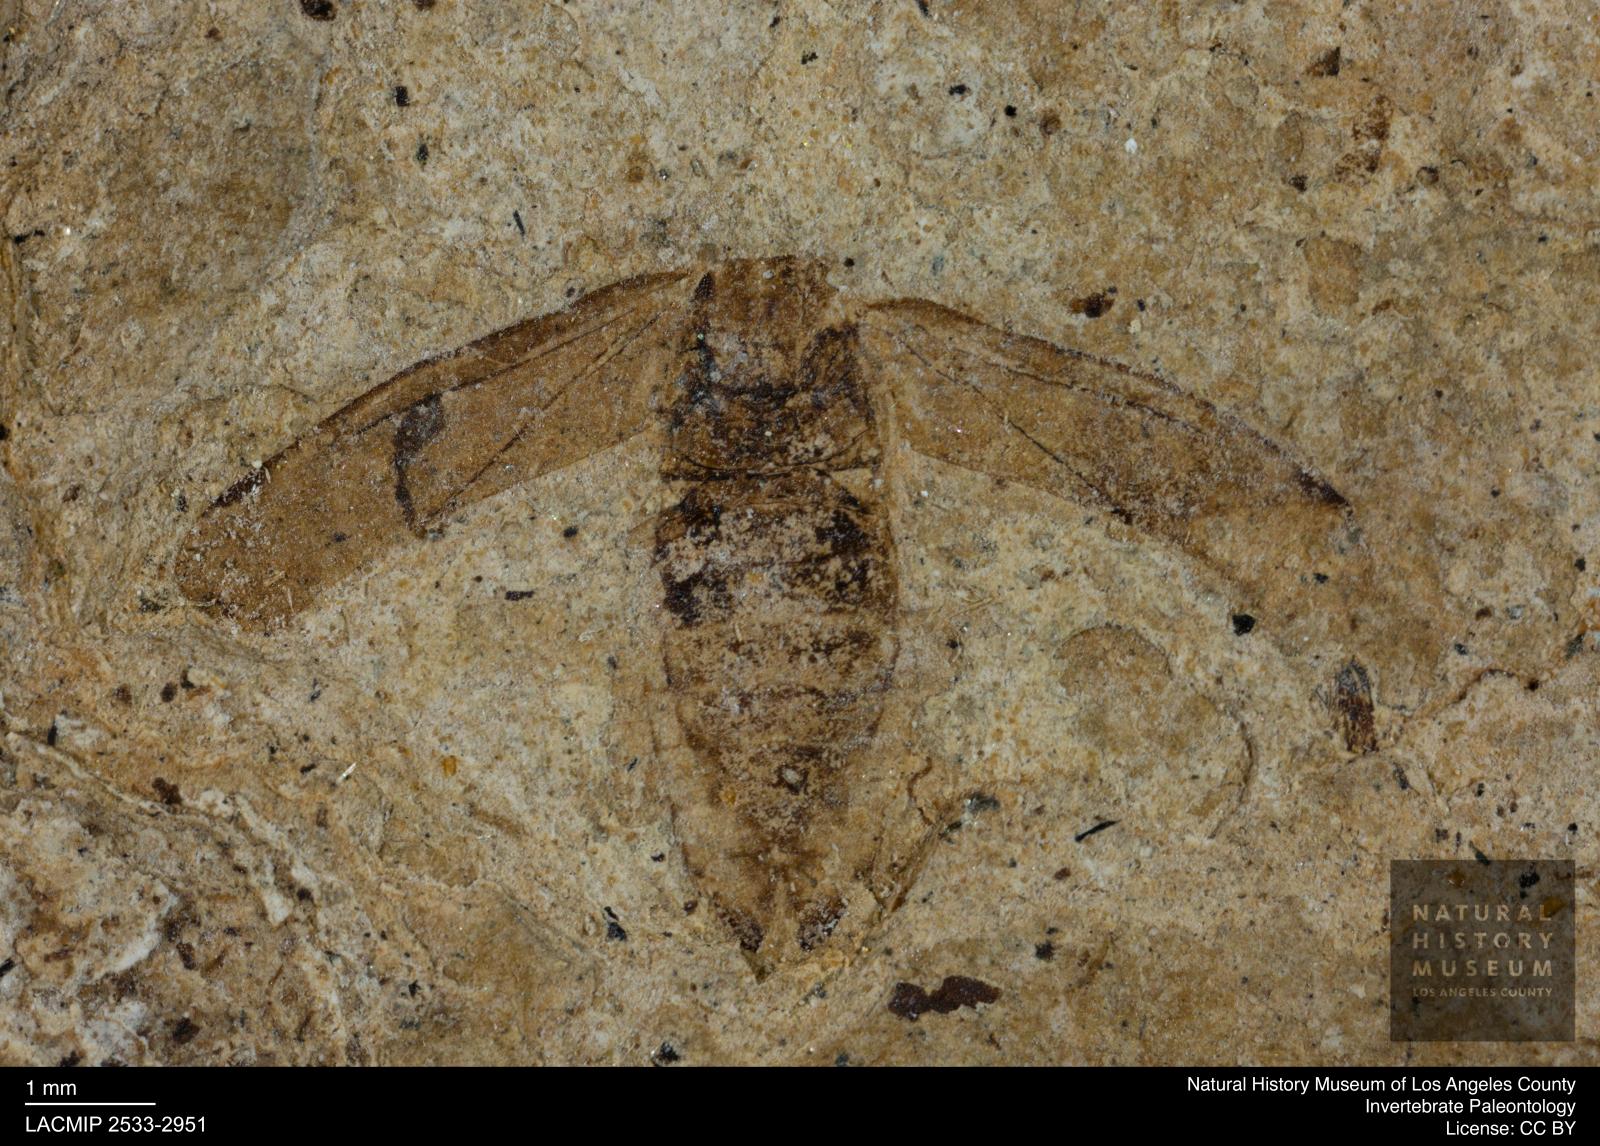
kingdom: Animalia
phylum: Arthropoda
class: Insecta
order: Hemiptera
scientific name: Hemiptera
